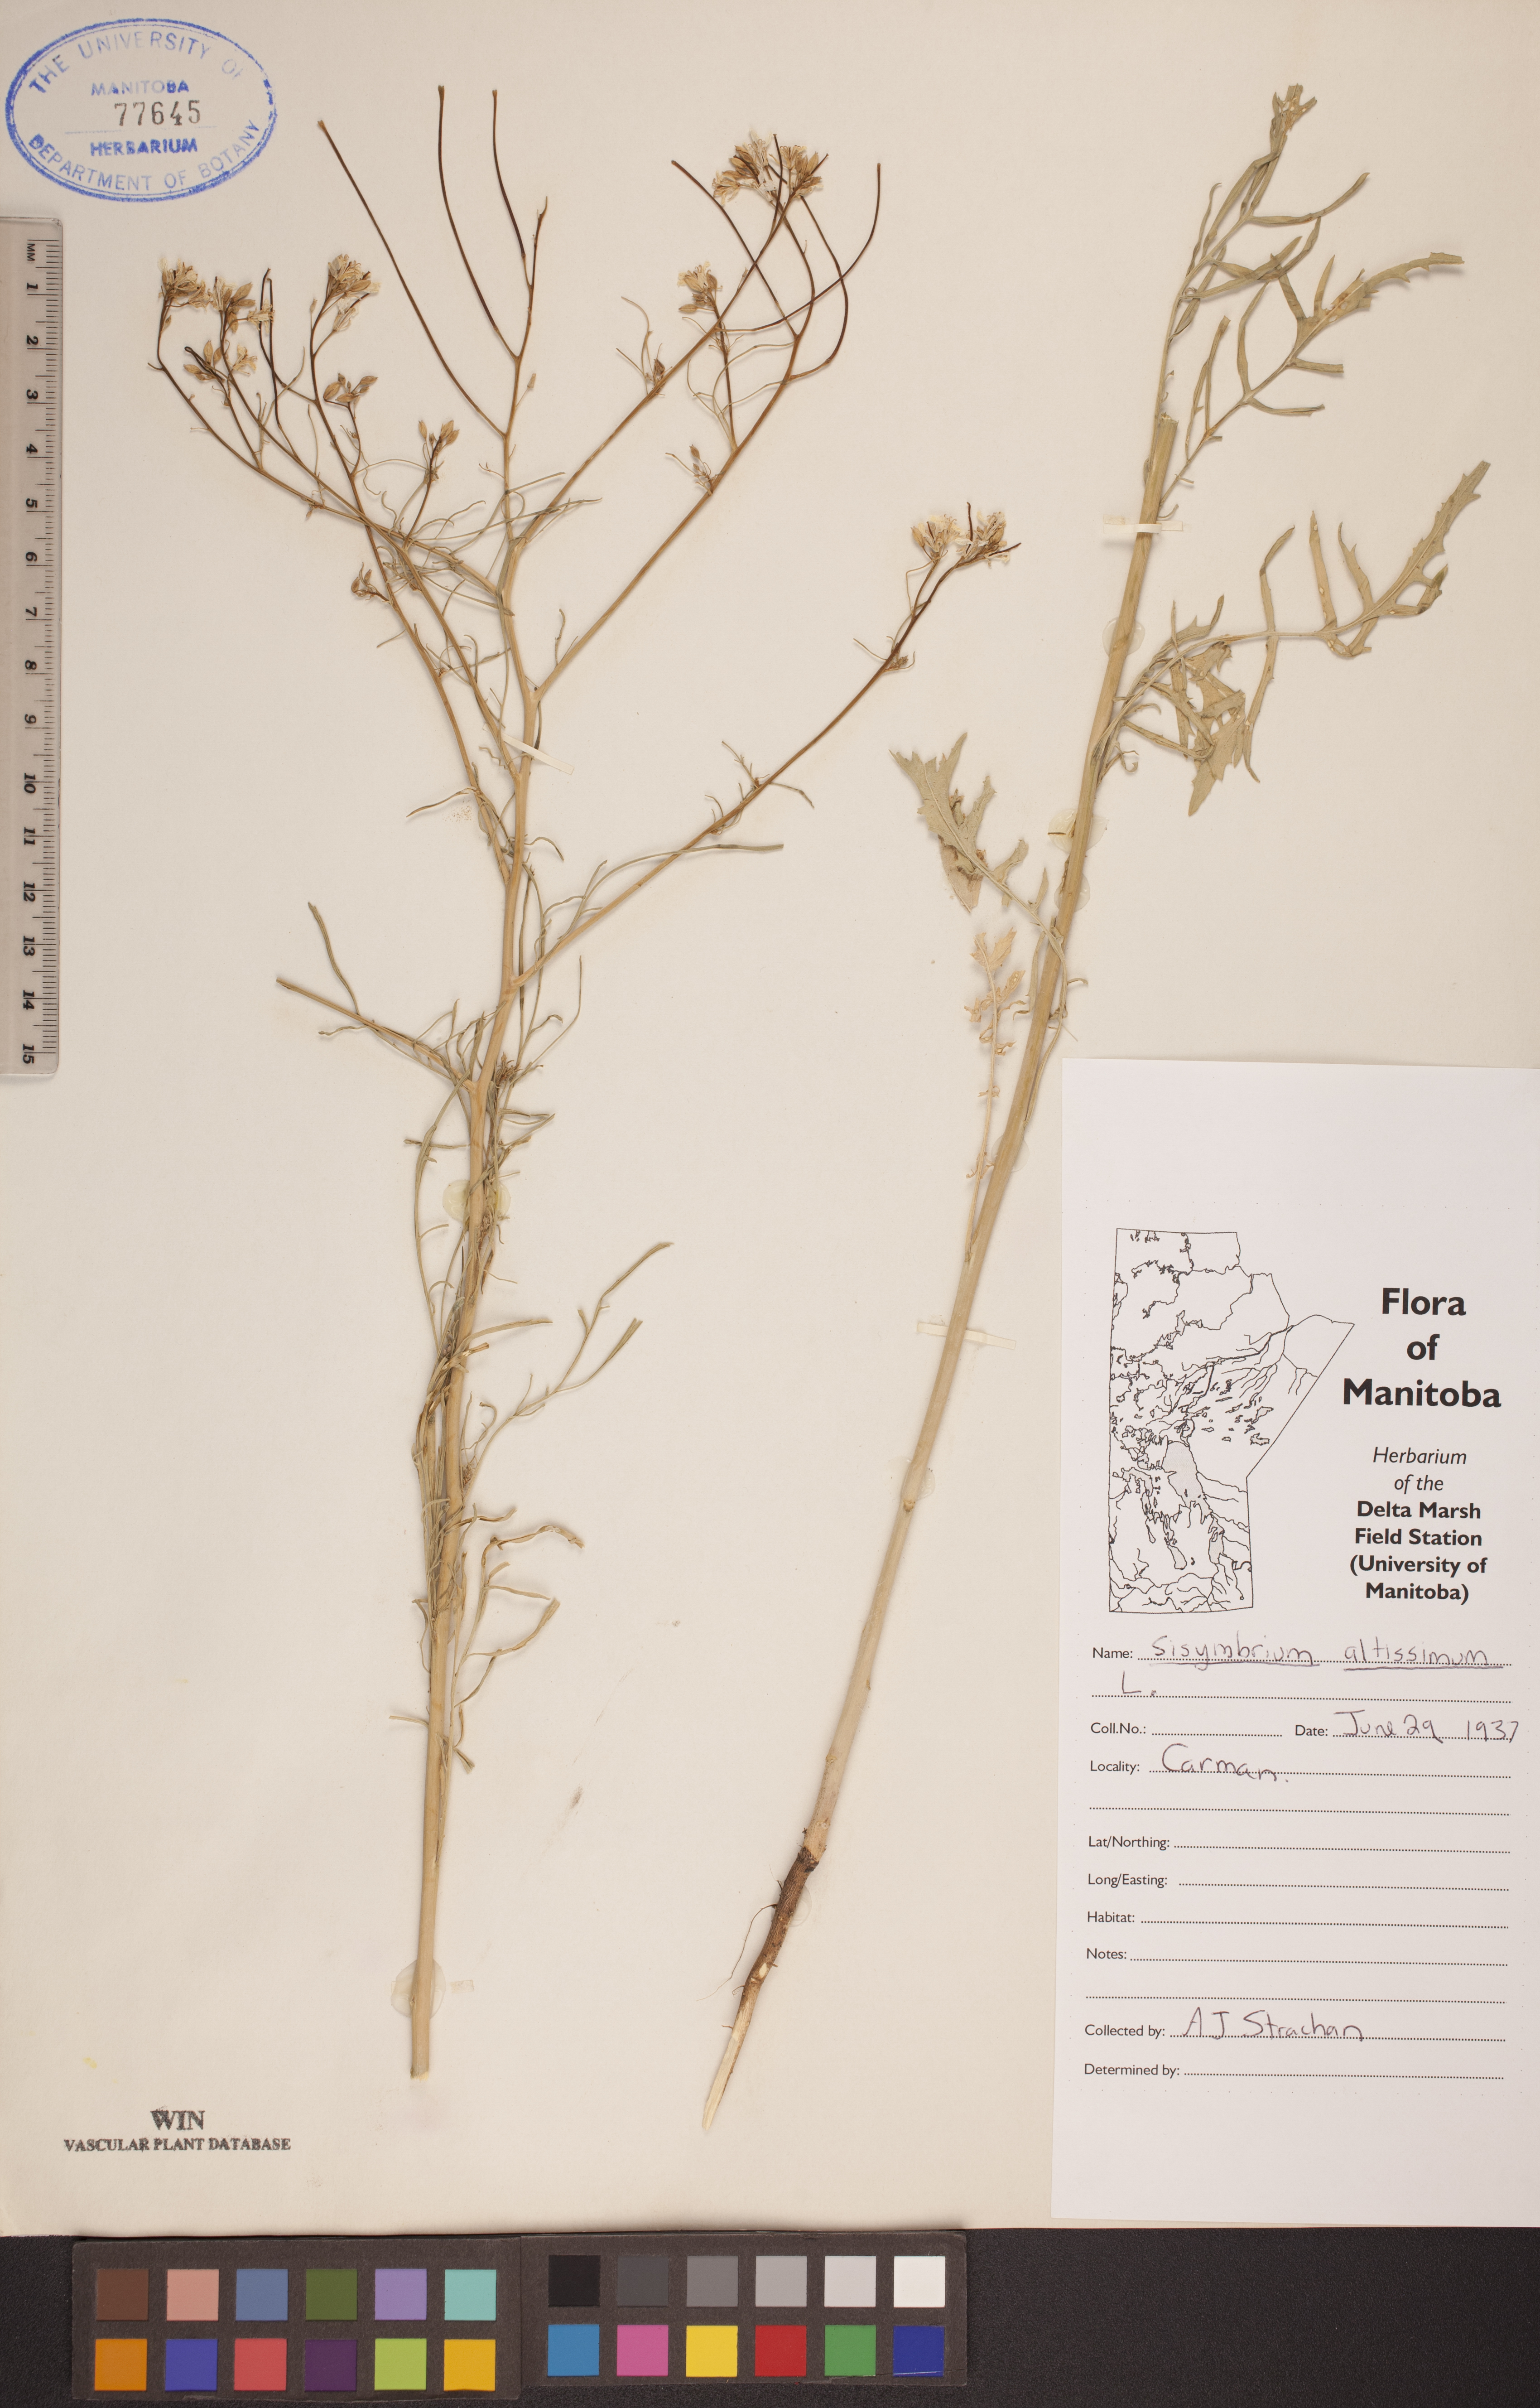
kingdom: Plantae
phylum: Tracheophyta
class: Magnoliopsida
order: Brassicales
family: Brassicaceae
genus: Sisymbrium
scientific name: Sisymbrium altissimum
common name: Tall rocket
